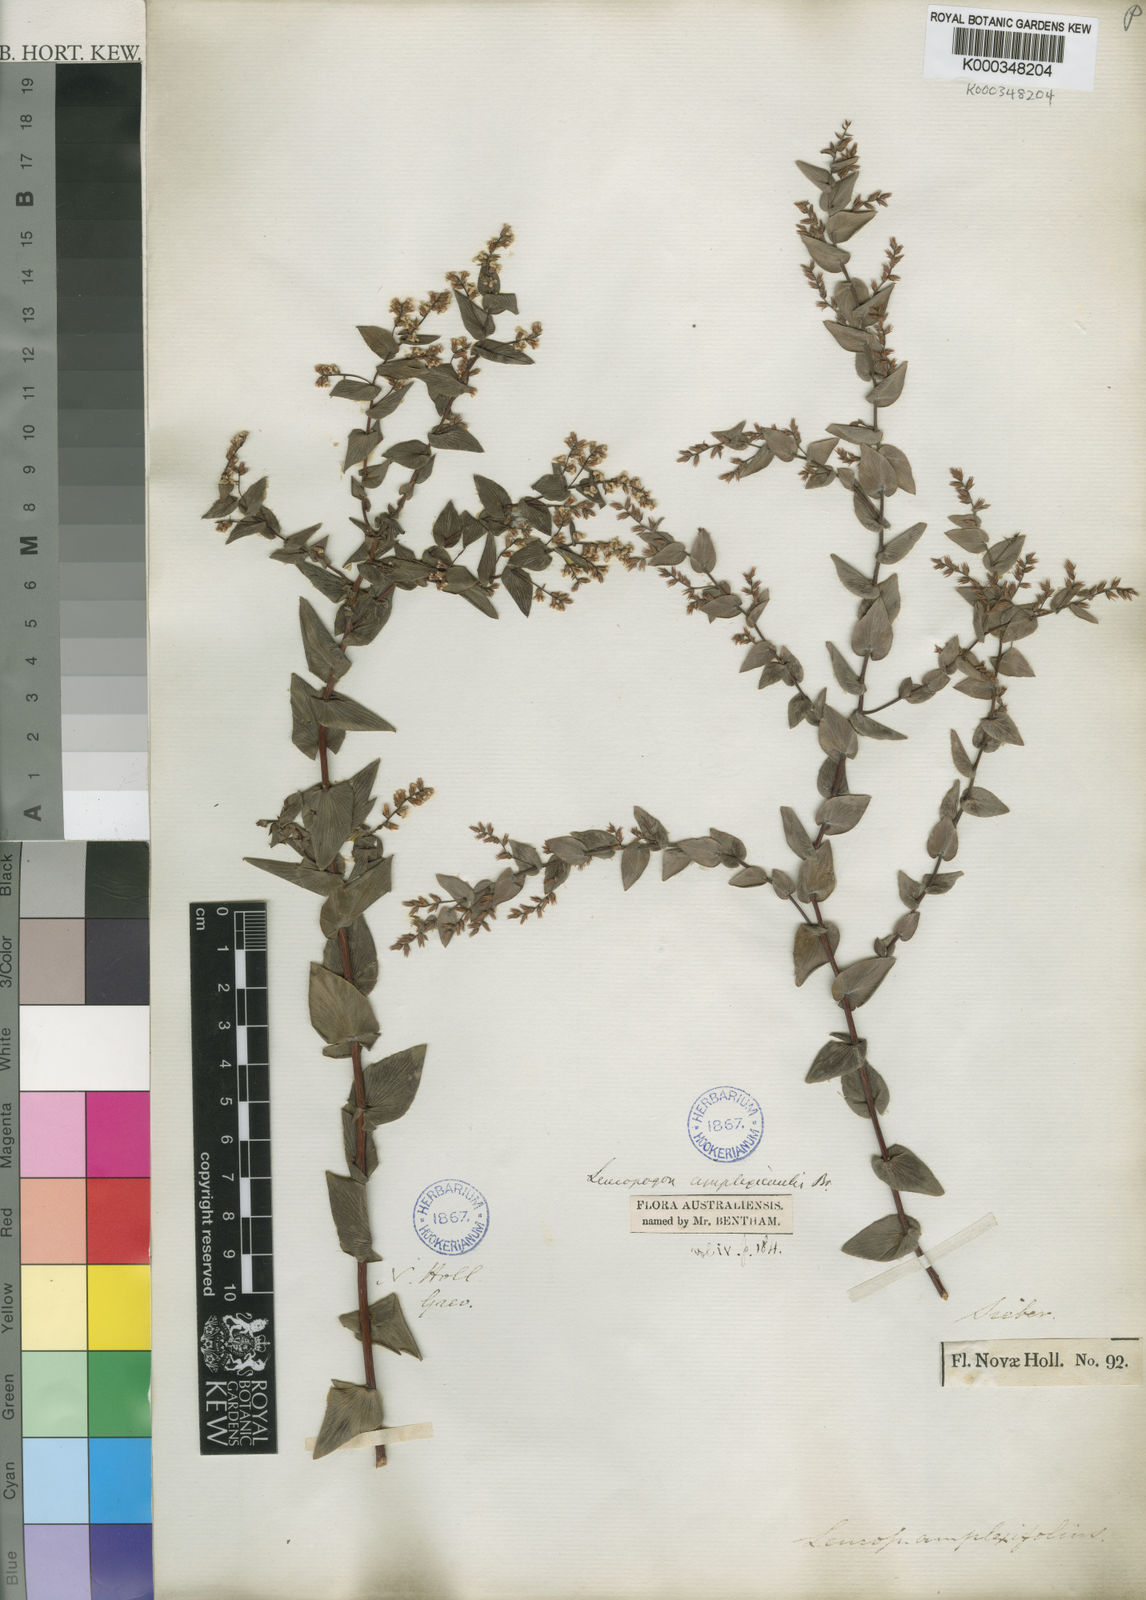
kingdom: Plantae
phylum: Tracheophyta
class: Magnoliopsida
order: Ericales
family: Ericaceae
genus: Leucopogon
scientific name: Leucopogon amplexicaulis
